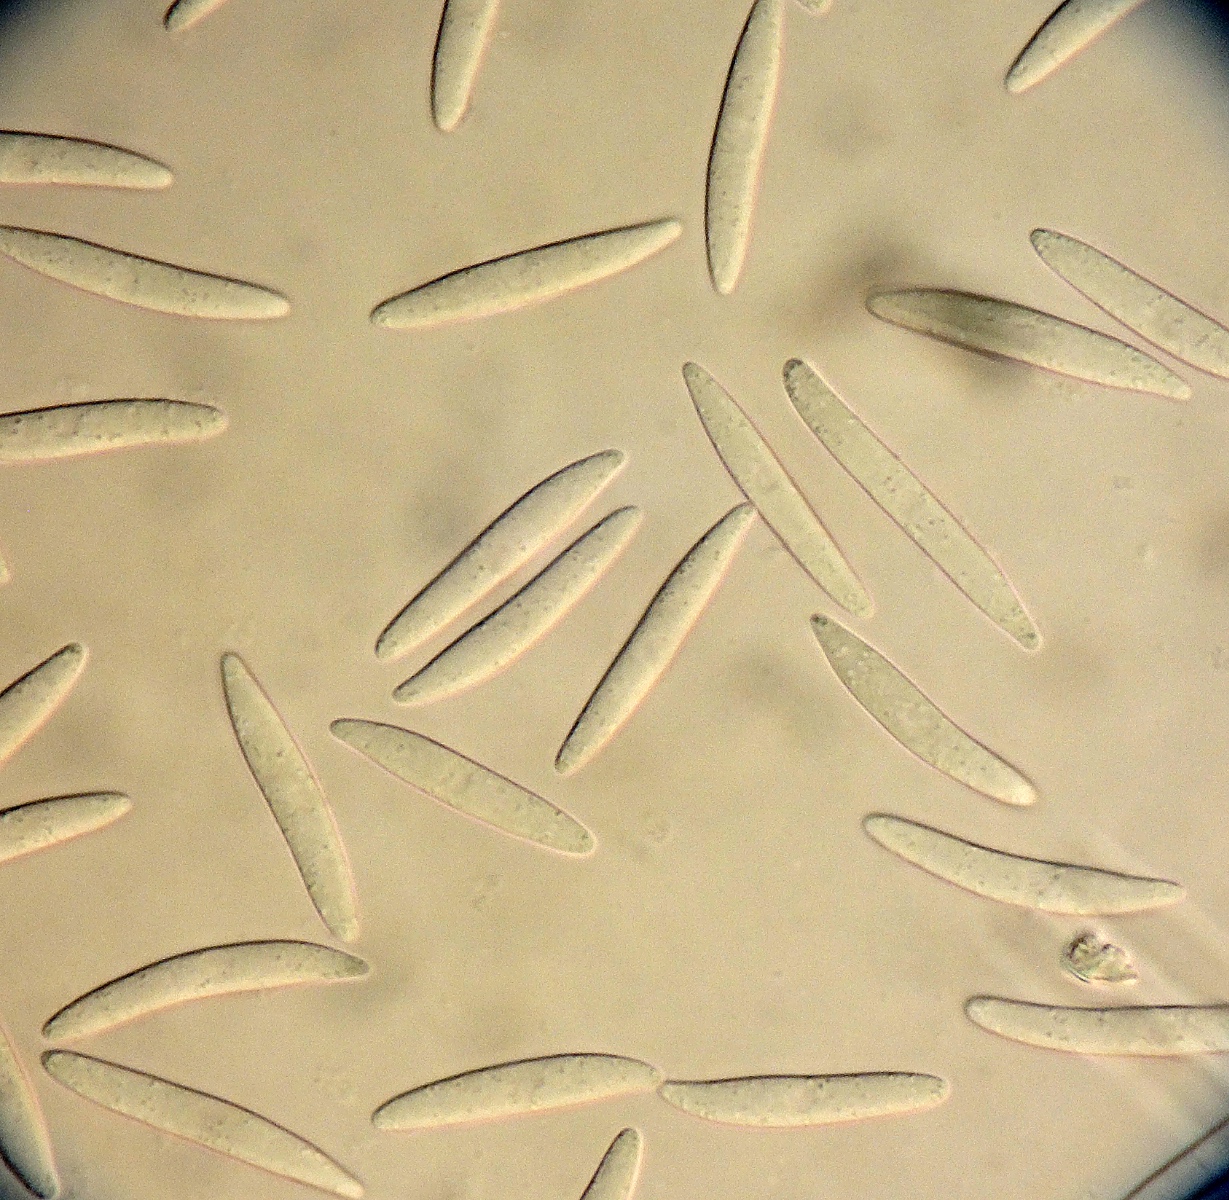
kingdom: Fungi
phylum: Ascomycota
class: Leotiomycetes
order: Helotiales
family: Helotiaceae
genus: Hymenoscyphus
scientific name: Hymenoscyphus geogenum
